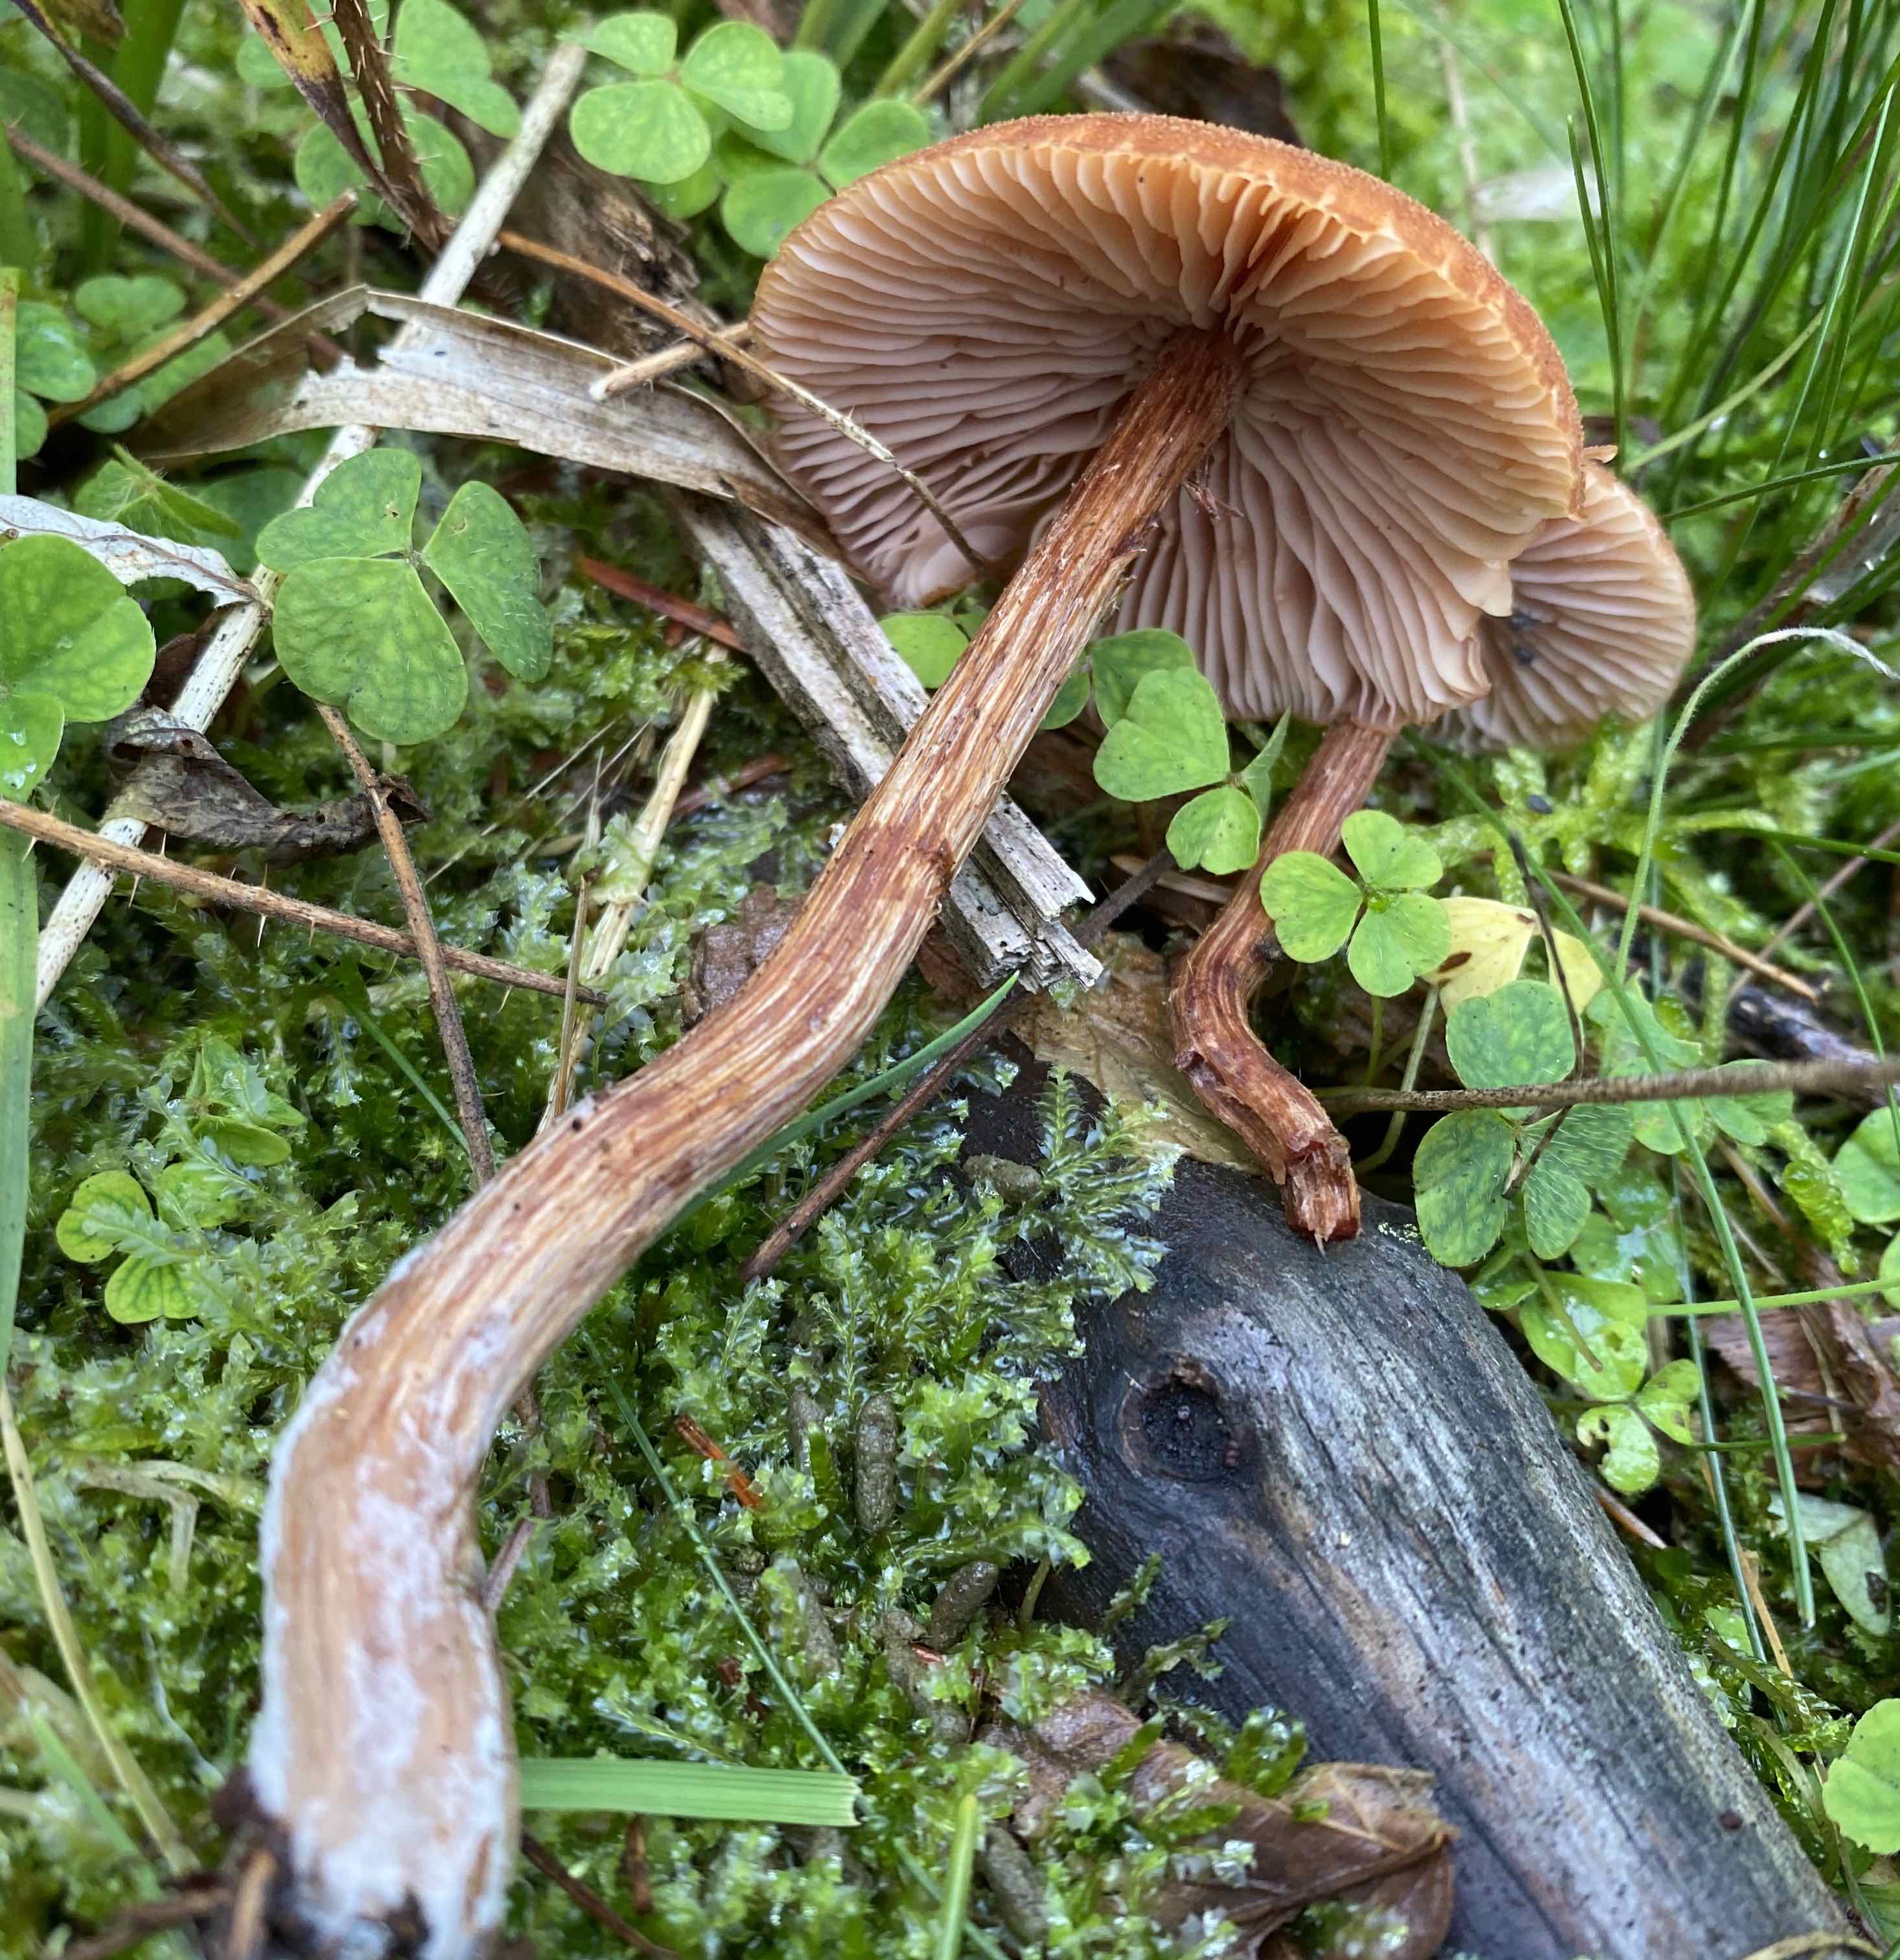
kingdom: Fungi
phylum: Basidiomycota
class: Agaricomycetes
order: Agaricales
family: Hydnangiaceae
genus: Laccaria
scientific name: Laccaria proxima
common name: stor ametysthat
